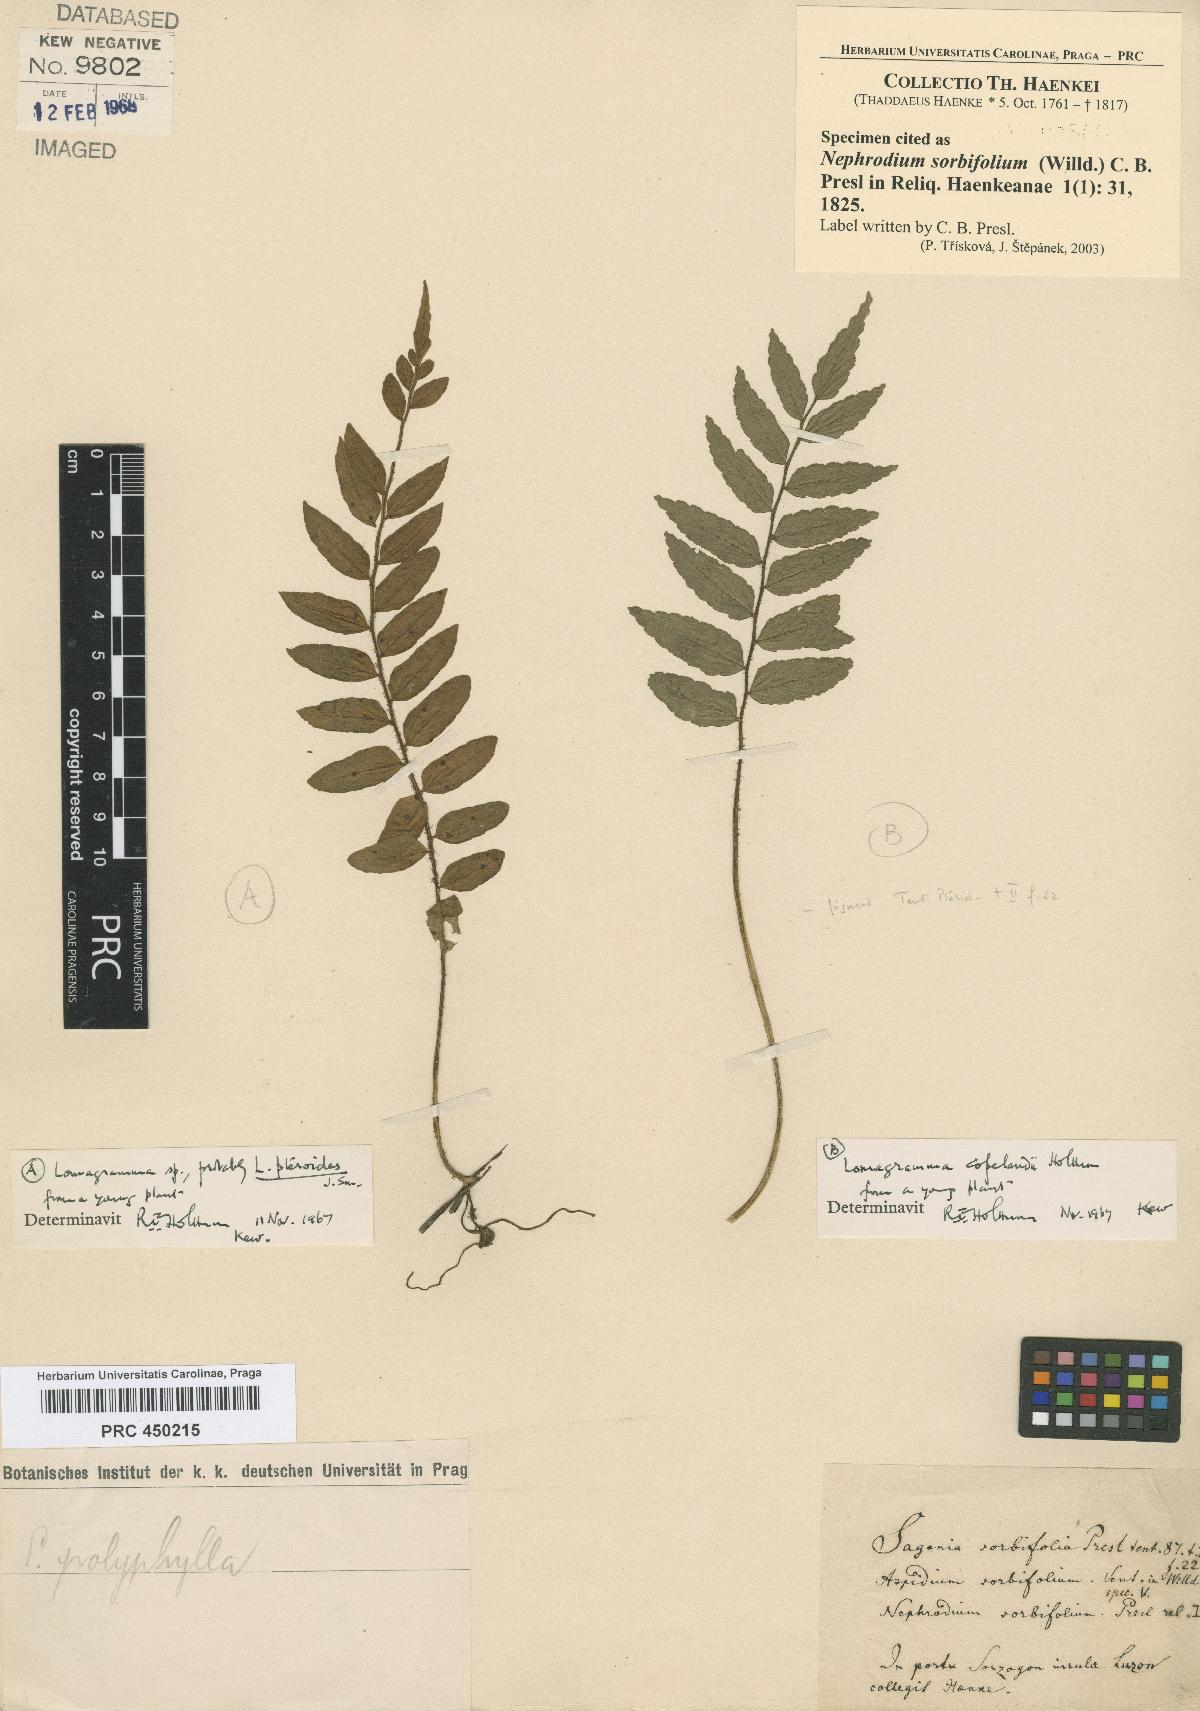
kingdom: Plantae
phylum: Tracheophyta
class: Polypodiopsida
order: Polypodiales
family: Dryopteridaceae
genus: Nephrodium
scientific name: Nephrodium
